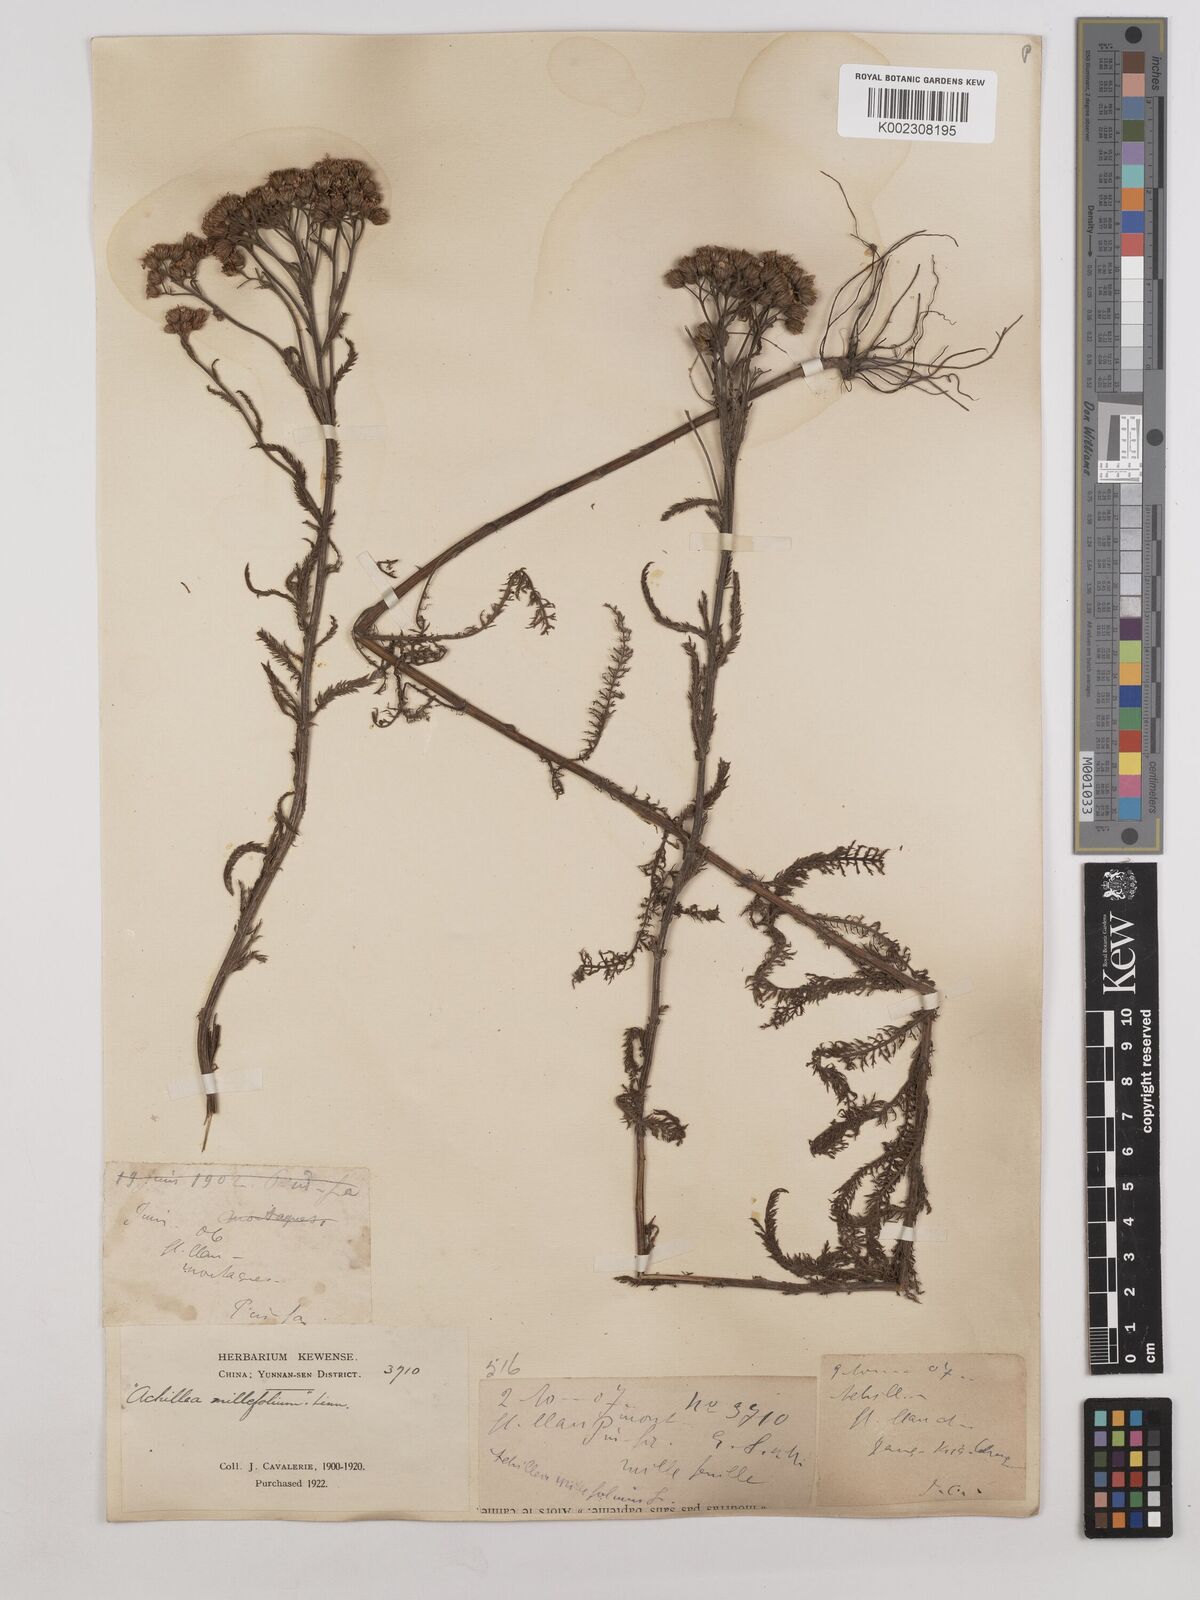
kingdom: Plantae
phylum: Tracheophyta
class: Magnoliopsida
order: Asterales
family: Asteraceae
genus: Achillea
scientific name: Achillea alpina
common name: Siberian yarrow
